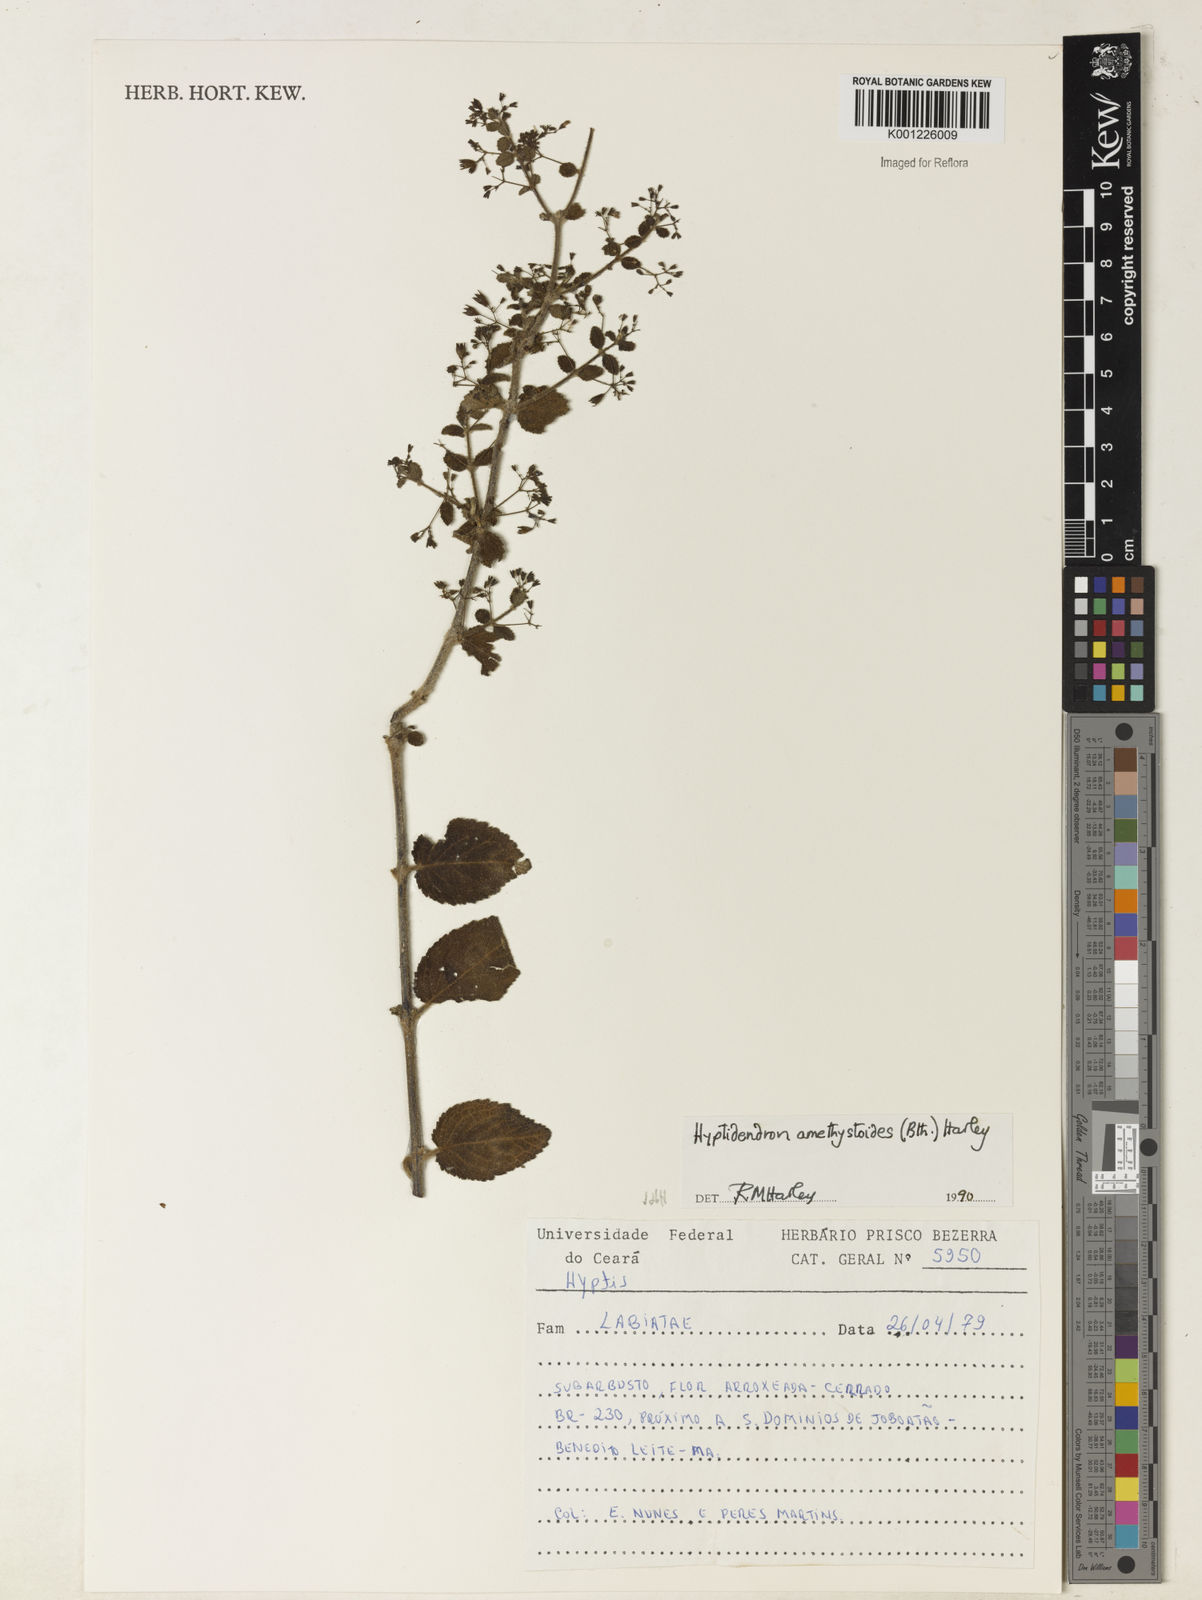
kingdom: Plantae
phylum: Tracheophyta
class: Magnoliopsida
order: Lamiales
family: Lamiaceae
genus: Hyptidendron
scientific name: Hyptidendron amethystoides
